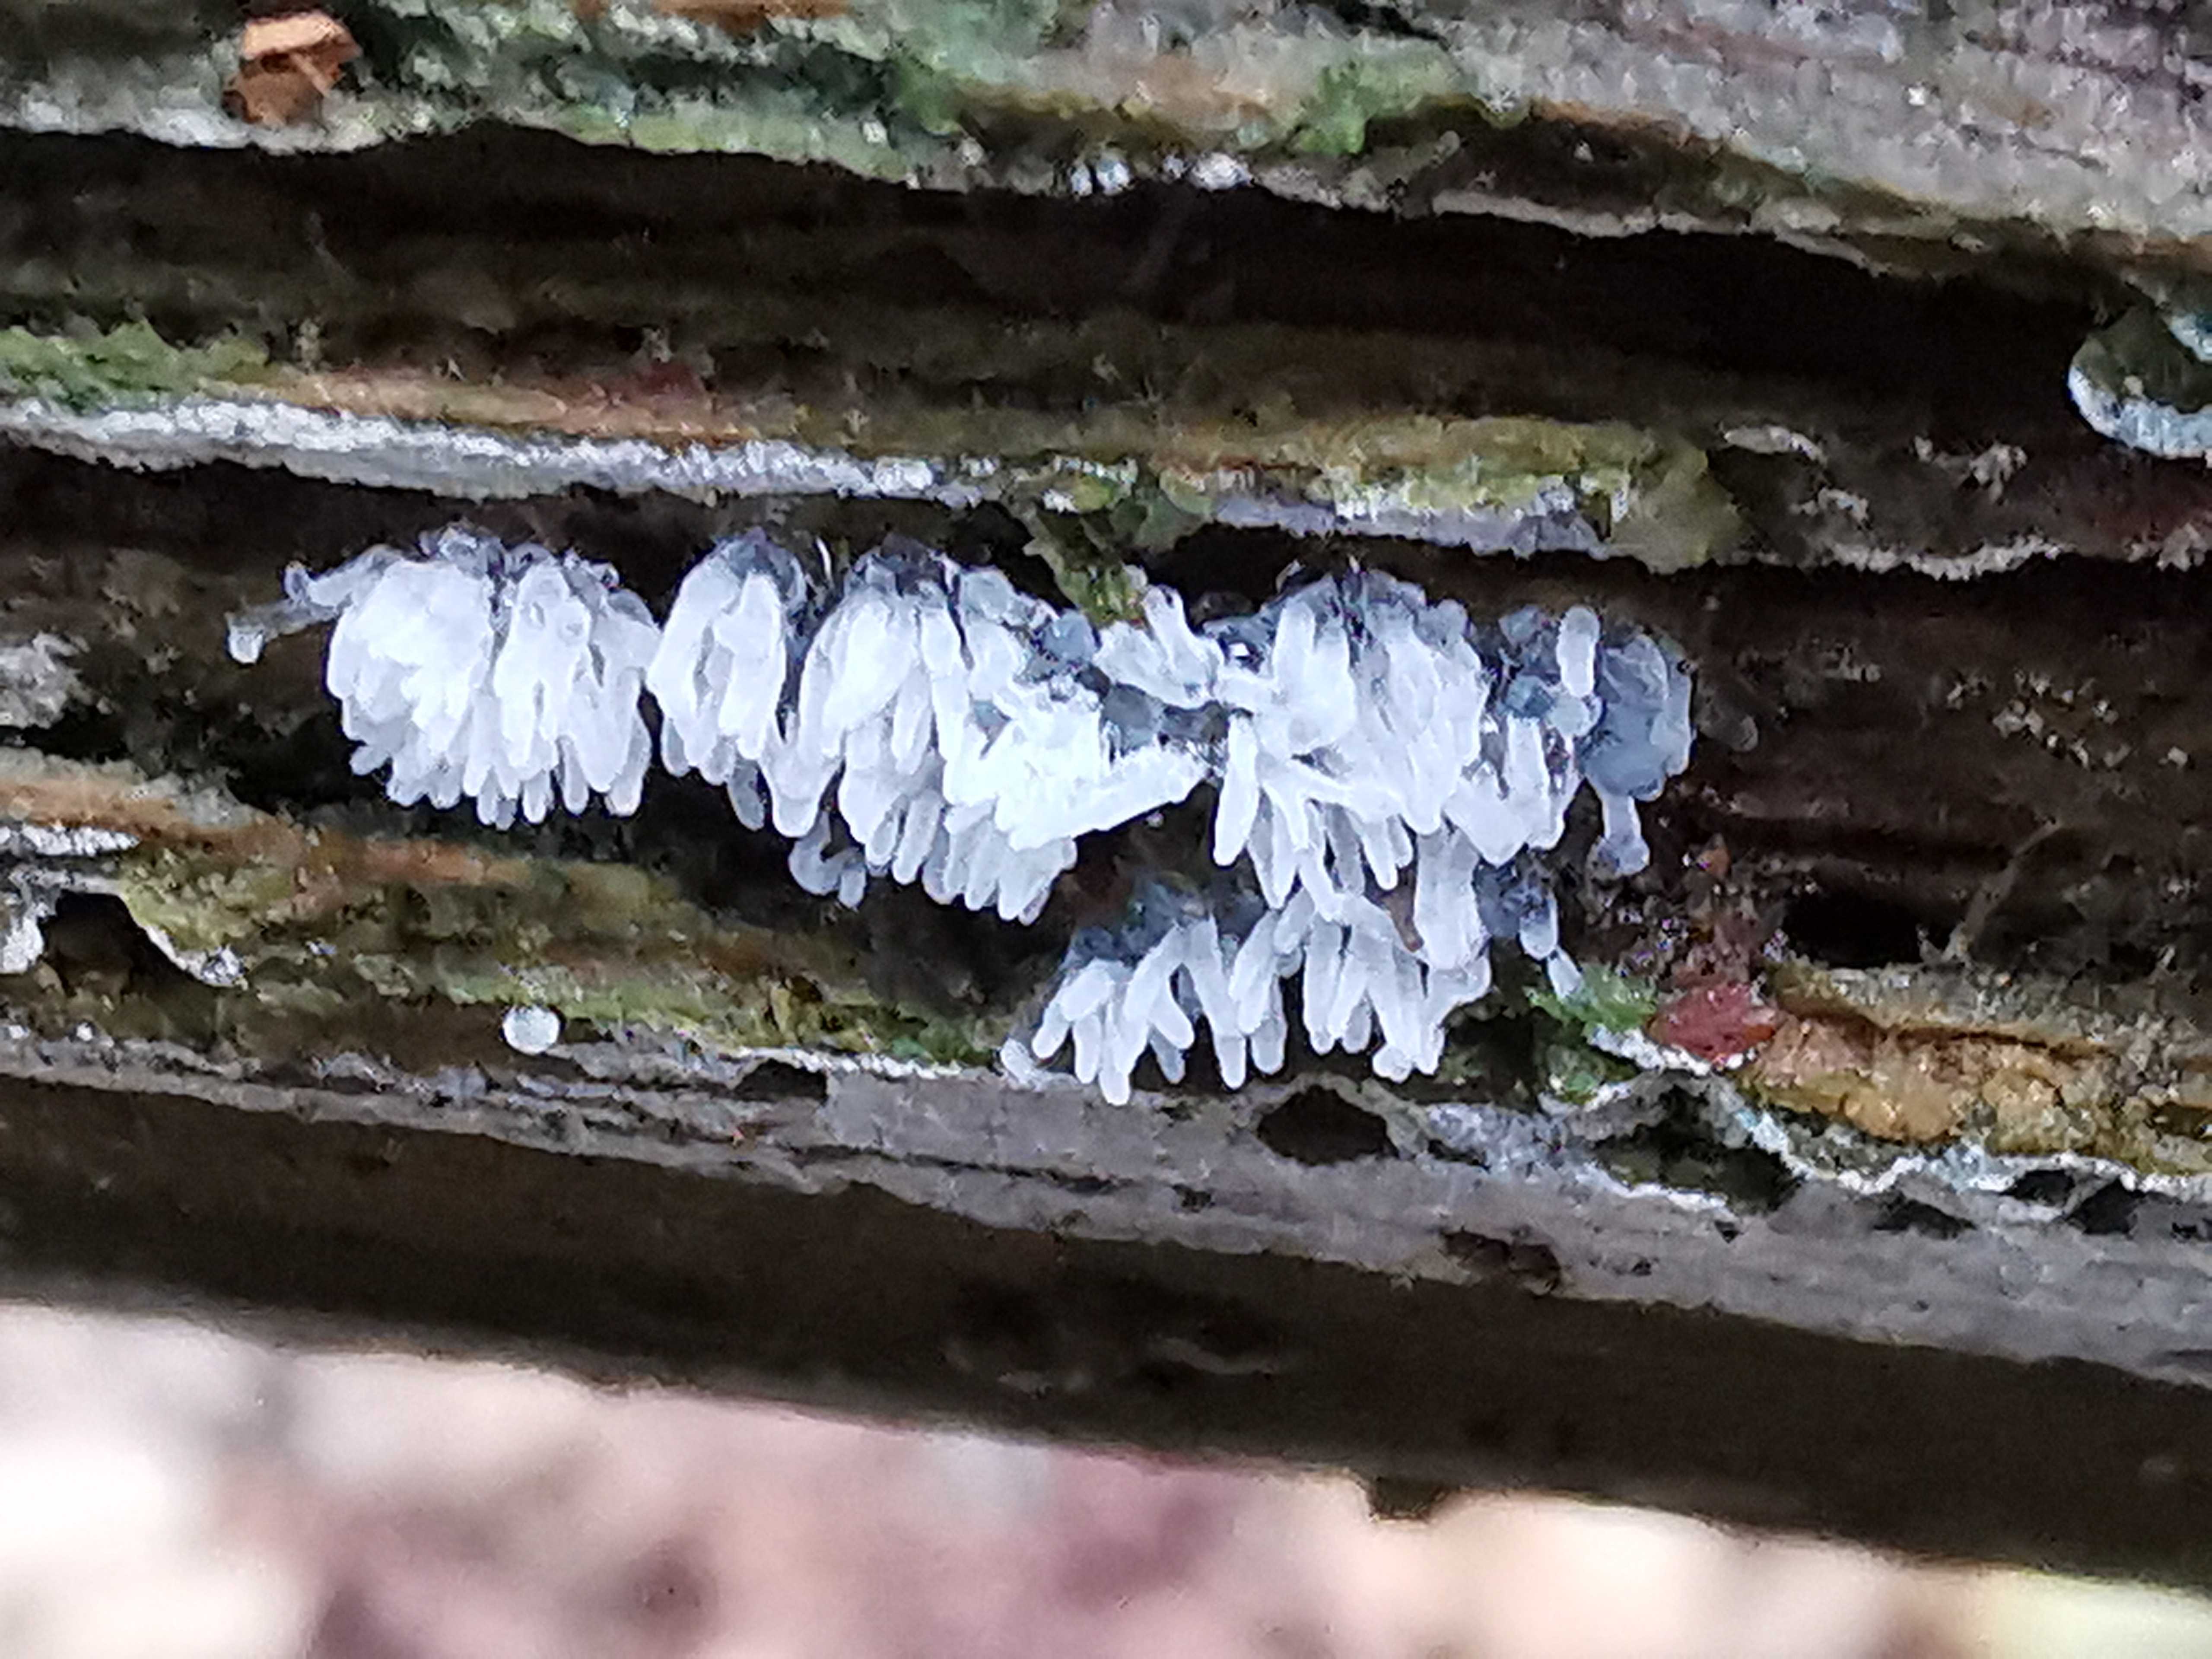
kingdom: Protozoa
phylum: Mycetozoa
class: Protosteliomycetes
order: Ceratiomyxales
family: Ceratiomyxaceae
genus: Ceratiomyxa
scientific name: Ceratiomyxa fruticulosa
